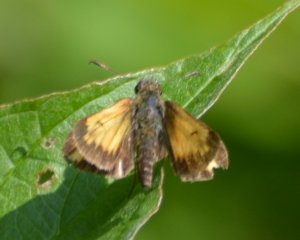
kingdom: Animalia
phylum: Arthropoda
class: Insecta
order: Lepidoptera
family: Hesperiidae
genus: Lon
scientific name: Lon hobomok
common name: Hobomok Skipper
